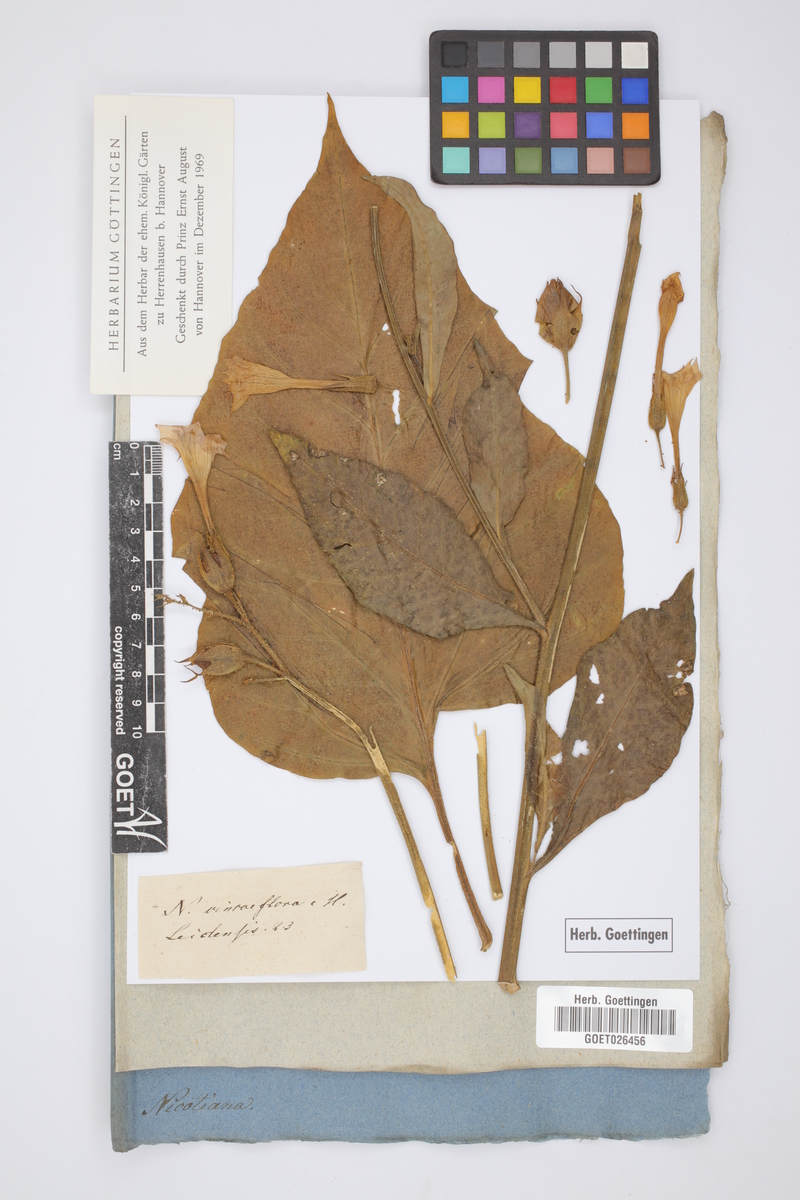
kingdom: Plantae
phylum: Tracheophyta
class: Magnoliopsida
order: Solanales
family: Solanaceae
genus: Nicotiana
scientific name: Nicotiana vincaeflora
